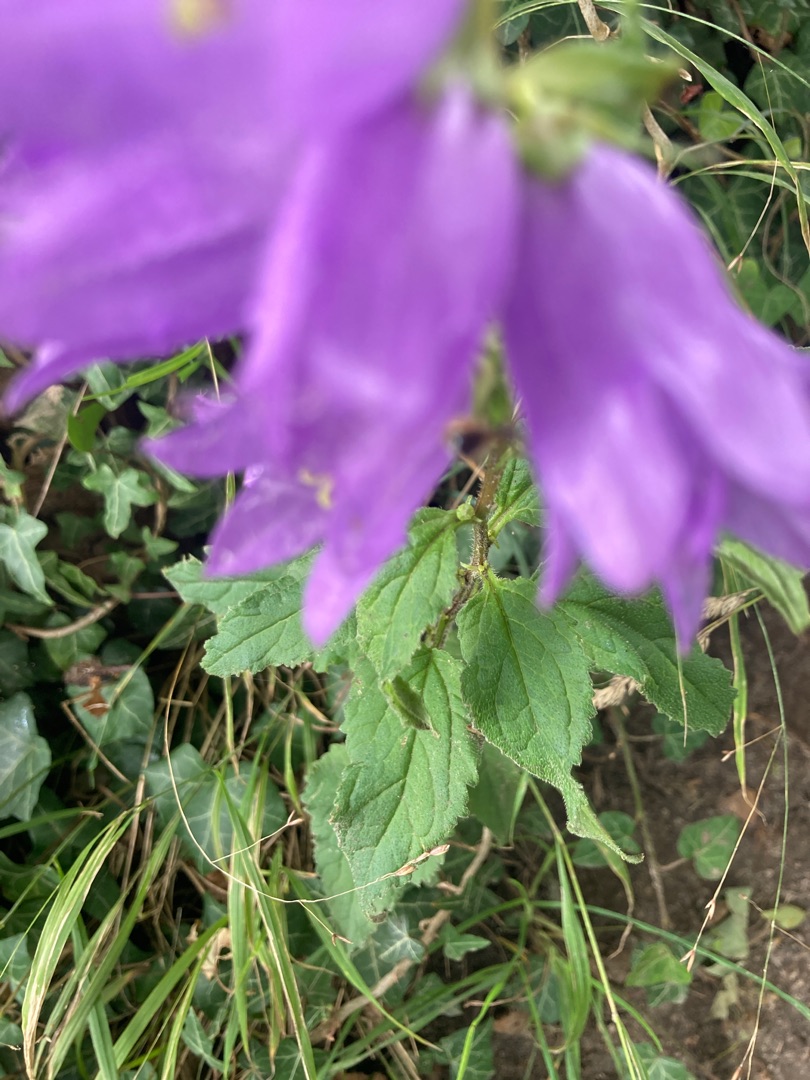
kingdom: Plantae
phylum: Tracheophyta
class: Magnoliopsida
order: Asterales
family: Campanulaceae
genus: Campanula
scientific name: Campanula trachelium
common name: Nælde-klokke
